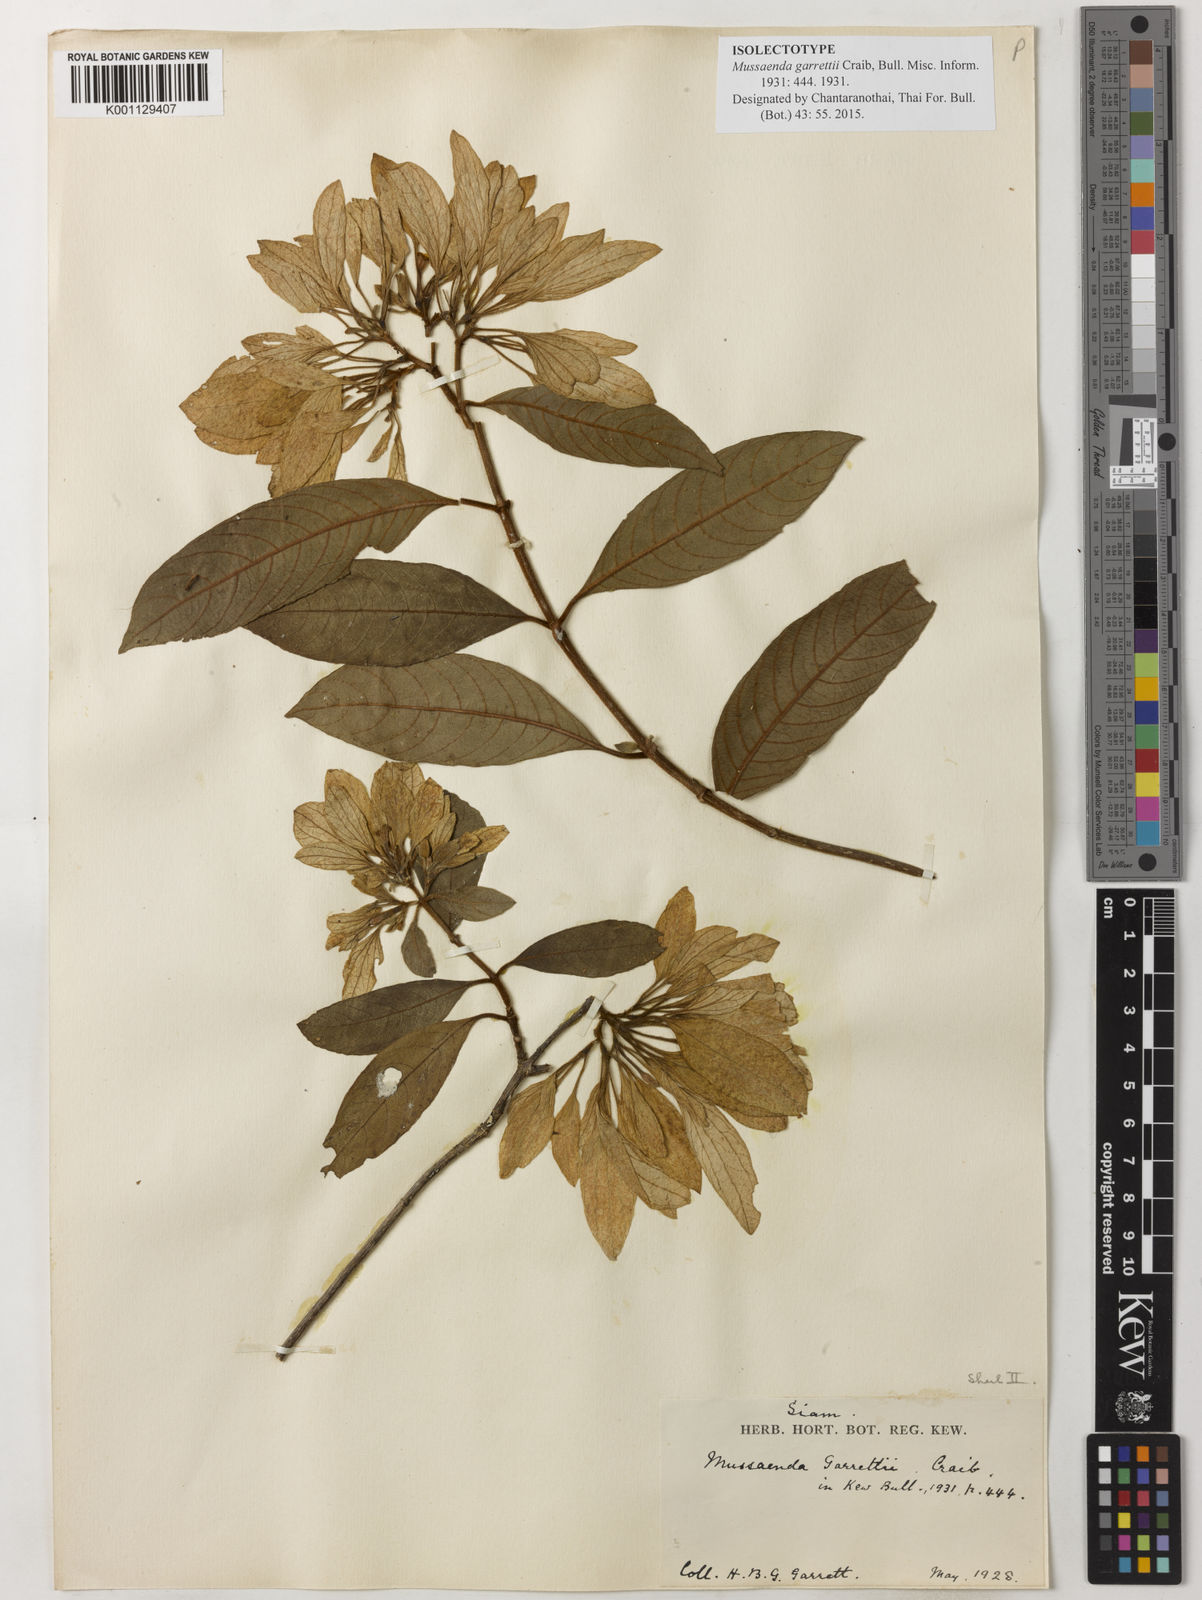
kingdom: Plantae
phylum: Tracheophyta
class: Magnoliopsida
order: Gentianales
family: Rubiaceae
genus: Mussaenda
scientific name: Mussaenda garrettii
